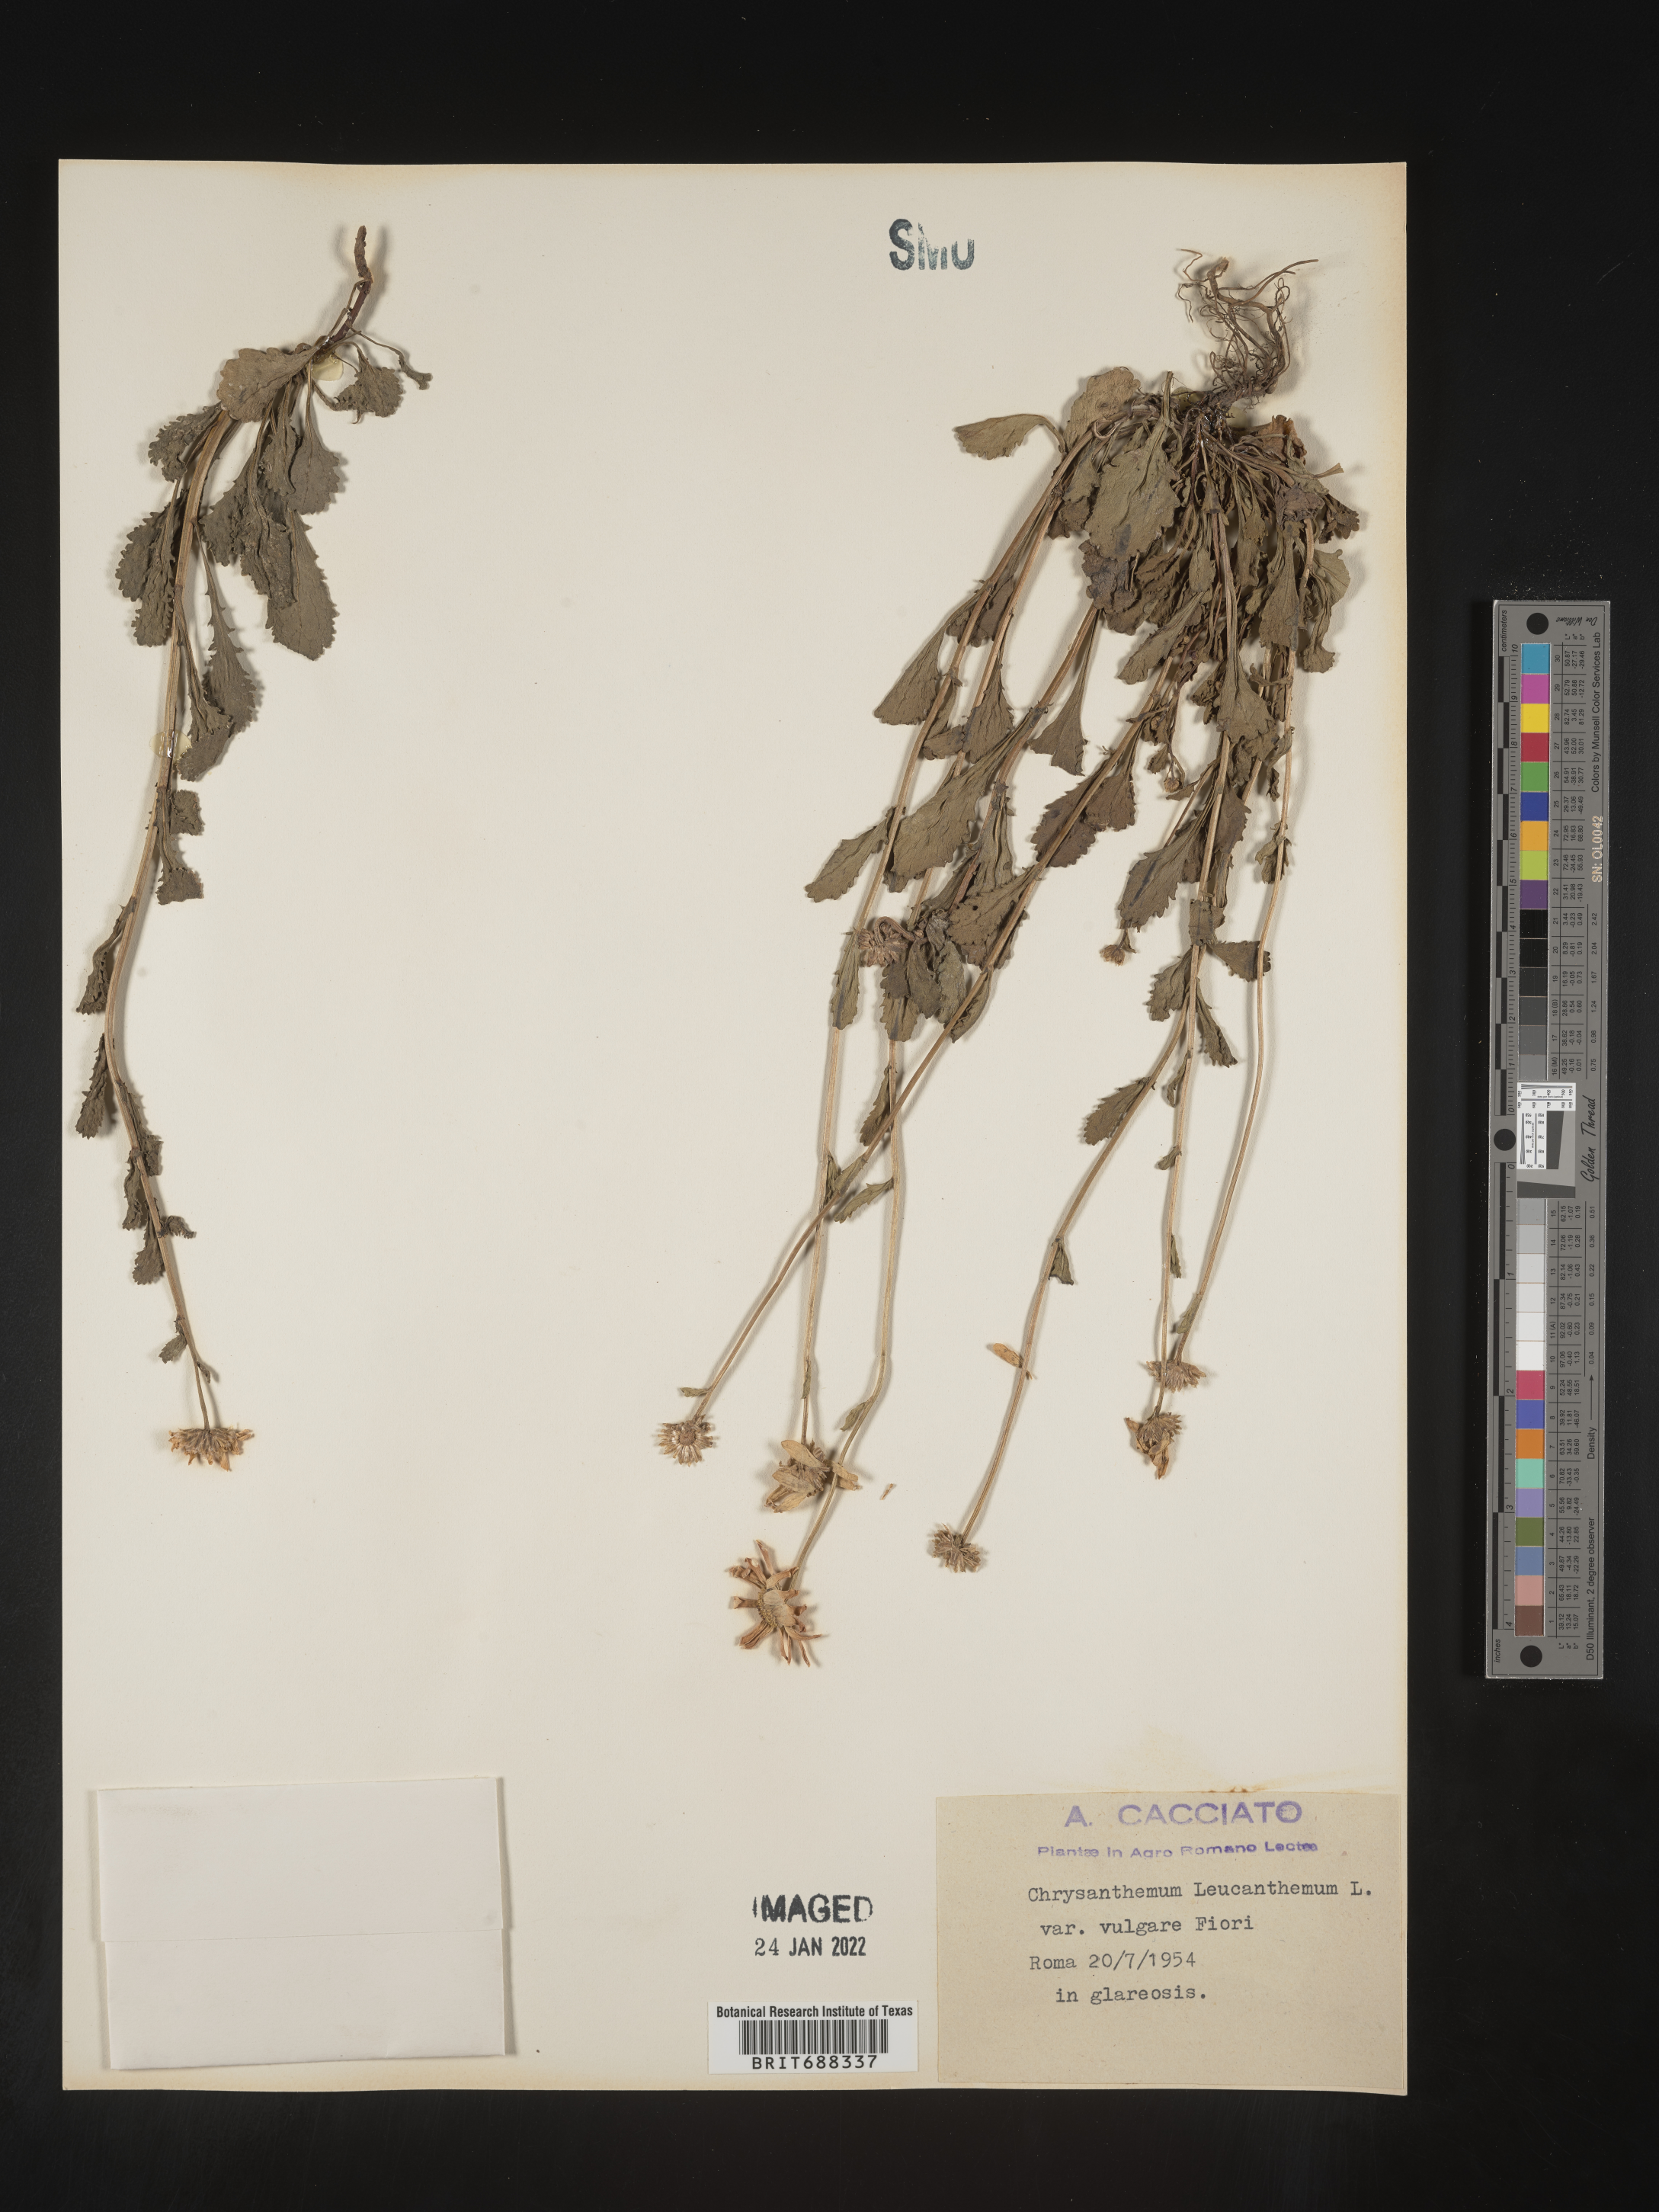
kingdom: Plantae
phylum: Tracheophyta
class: Magnoliopsida
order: Asterales
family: Asteraceae
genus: Chrysanthemum
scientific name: Chrysanthemum
